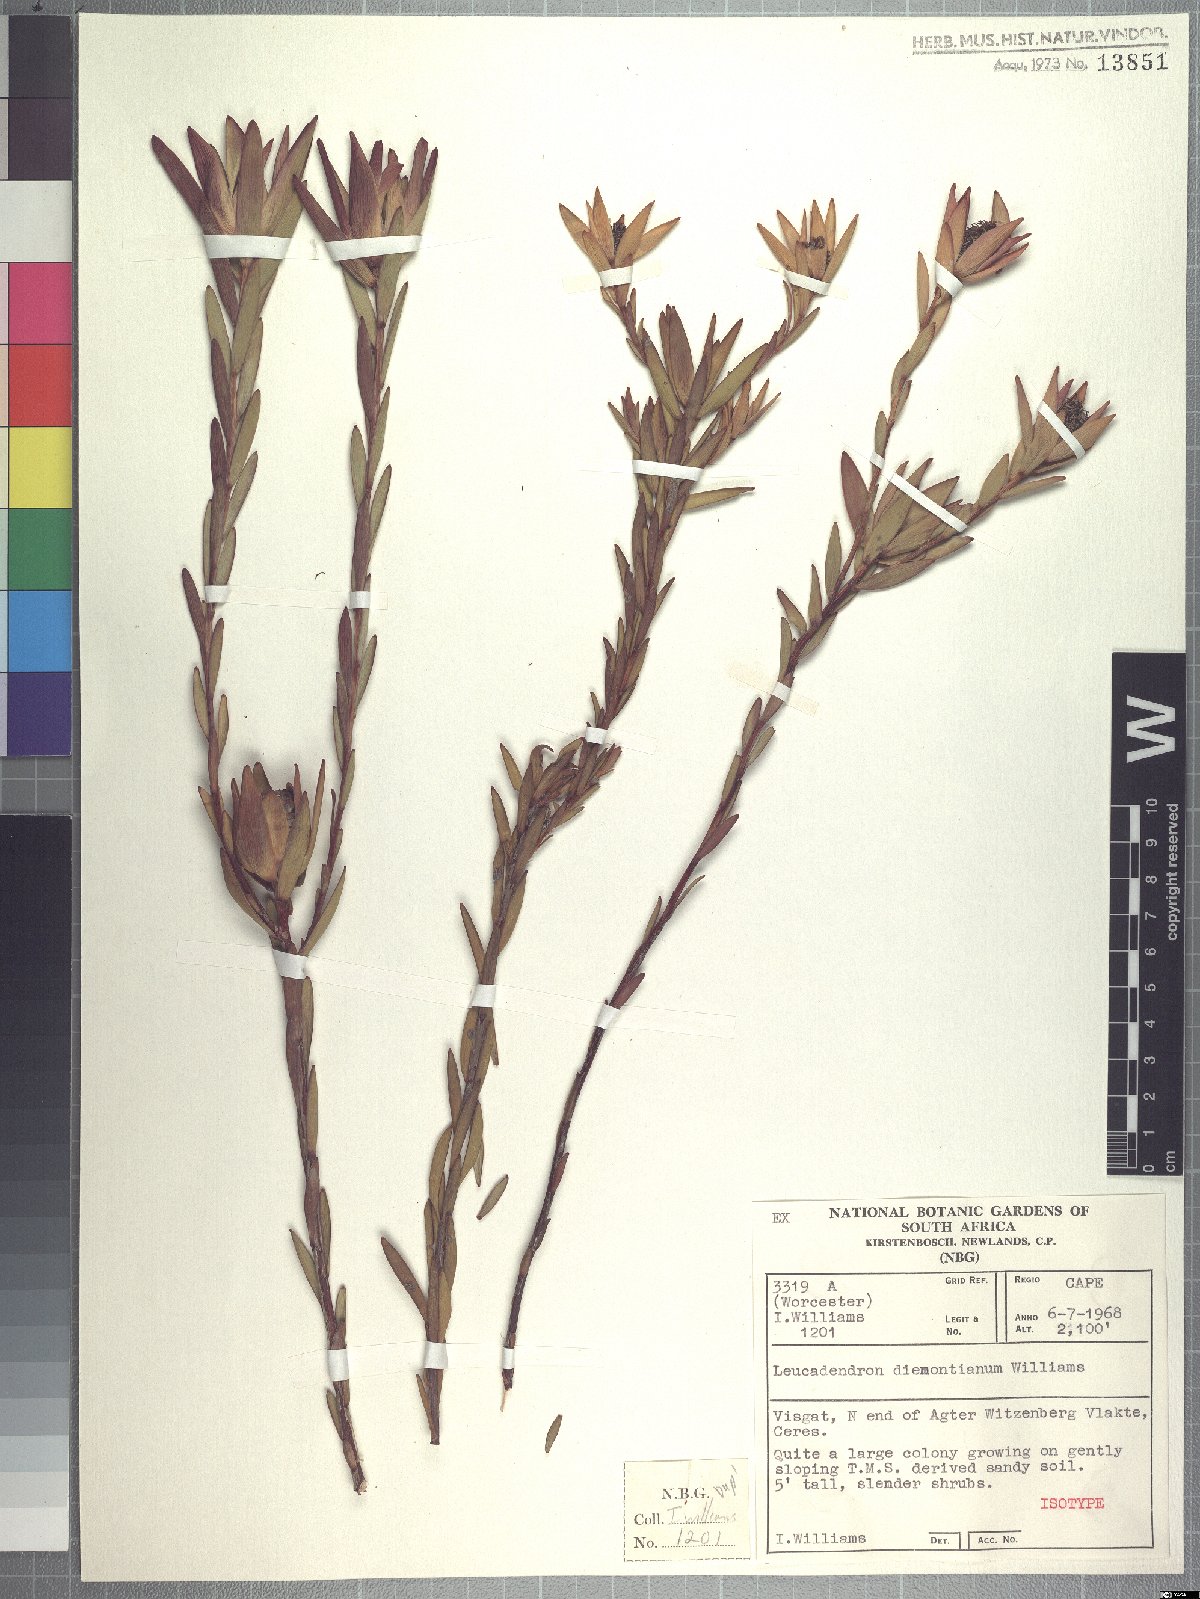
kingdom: Plantae
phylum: Tracheophyta
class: Magnoliopsida
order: Proteales
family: Proteaceae
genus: Leucadendron
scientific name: Leucadendron diemontianum
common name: Visgat conebush
